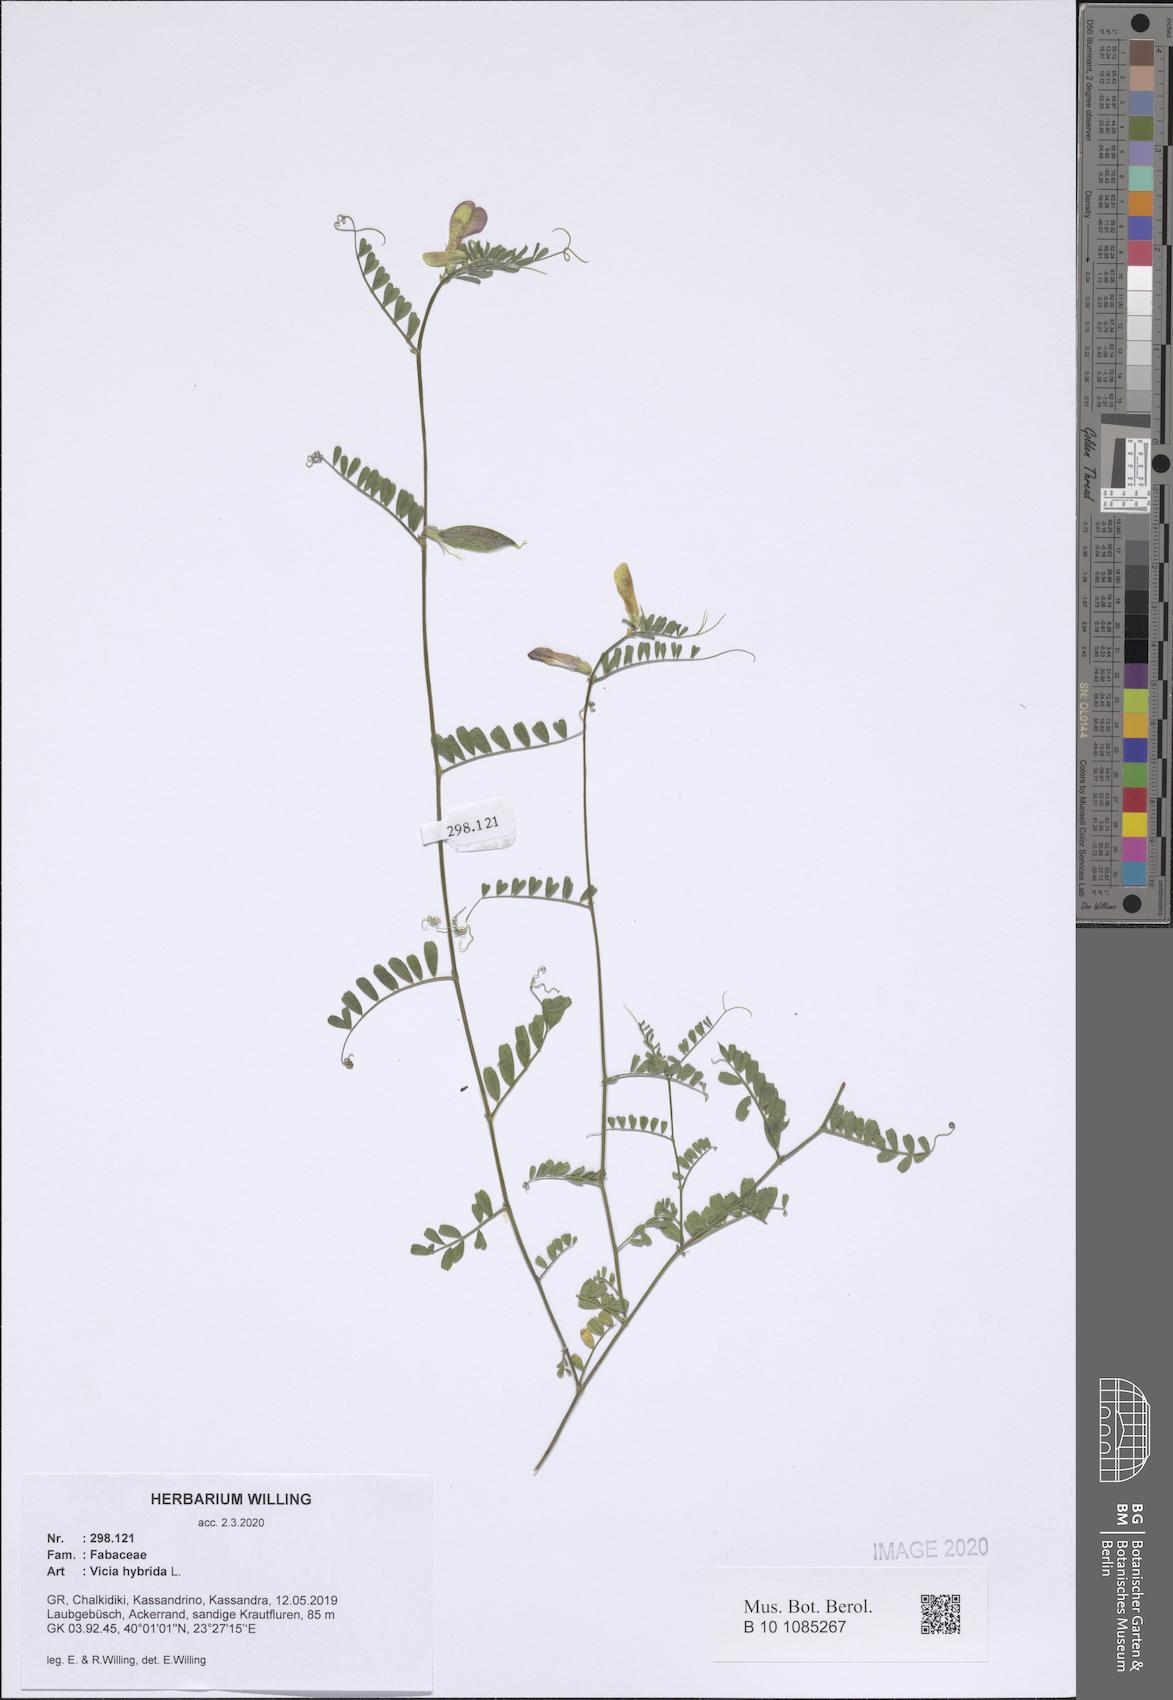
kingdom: Plantae
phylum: Tracheophyta
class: Magnoliopsida
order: Fabales
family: Fabaceae
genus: Vicia
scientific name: Vicia hybrida
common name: Hairy yellow vetch
